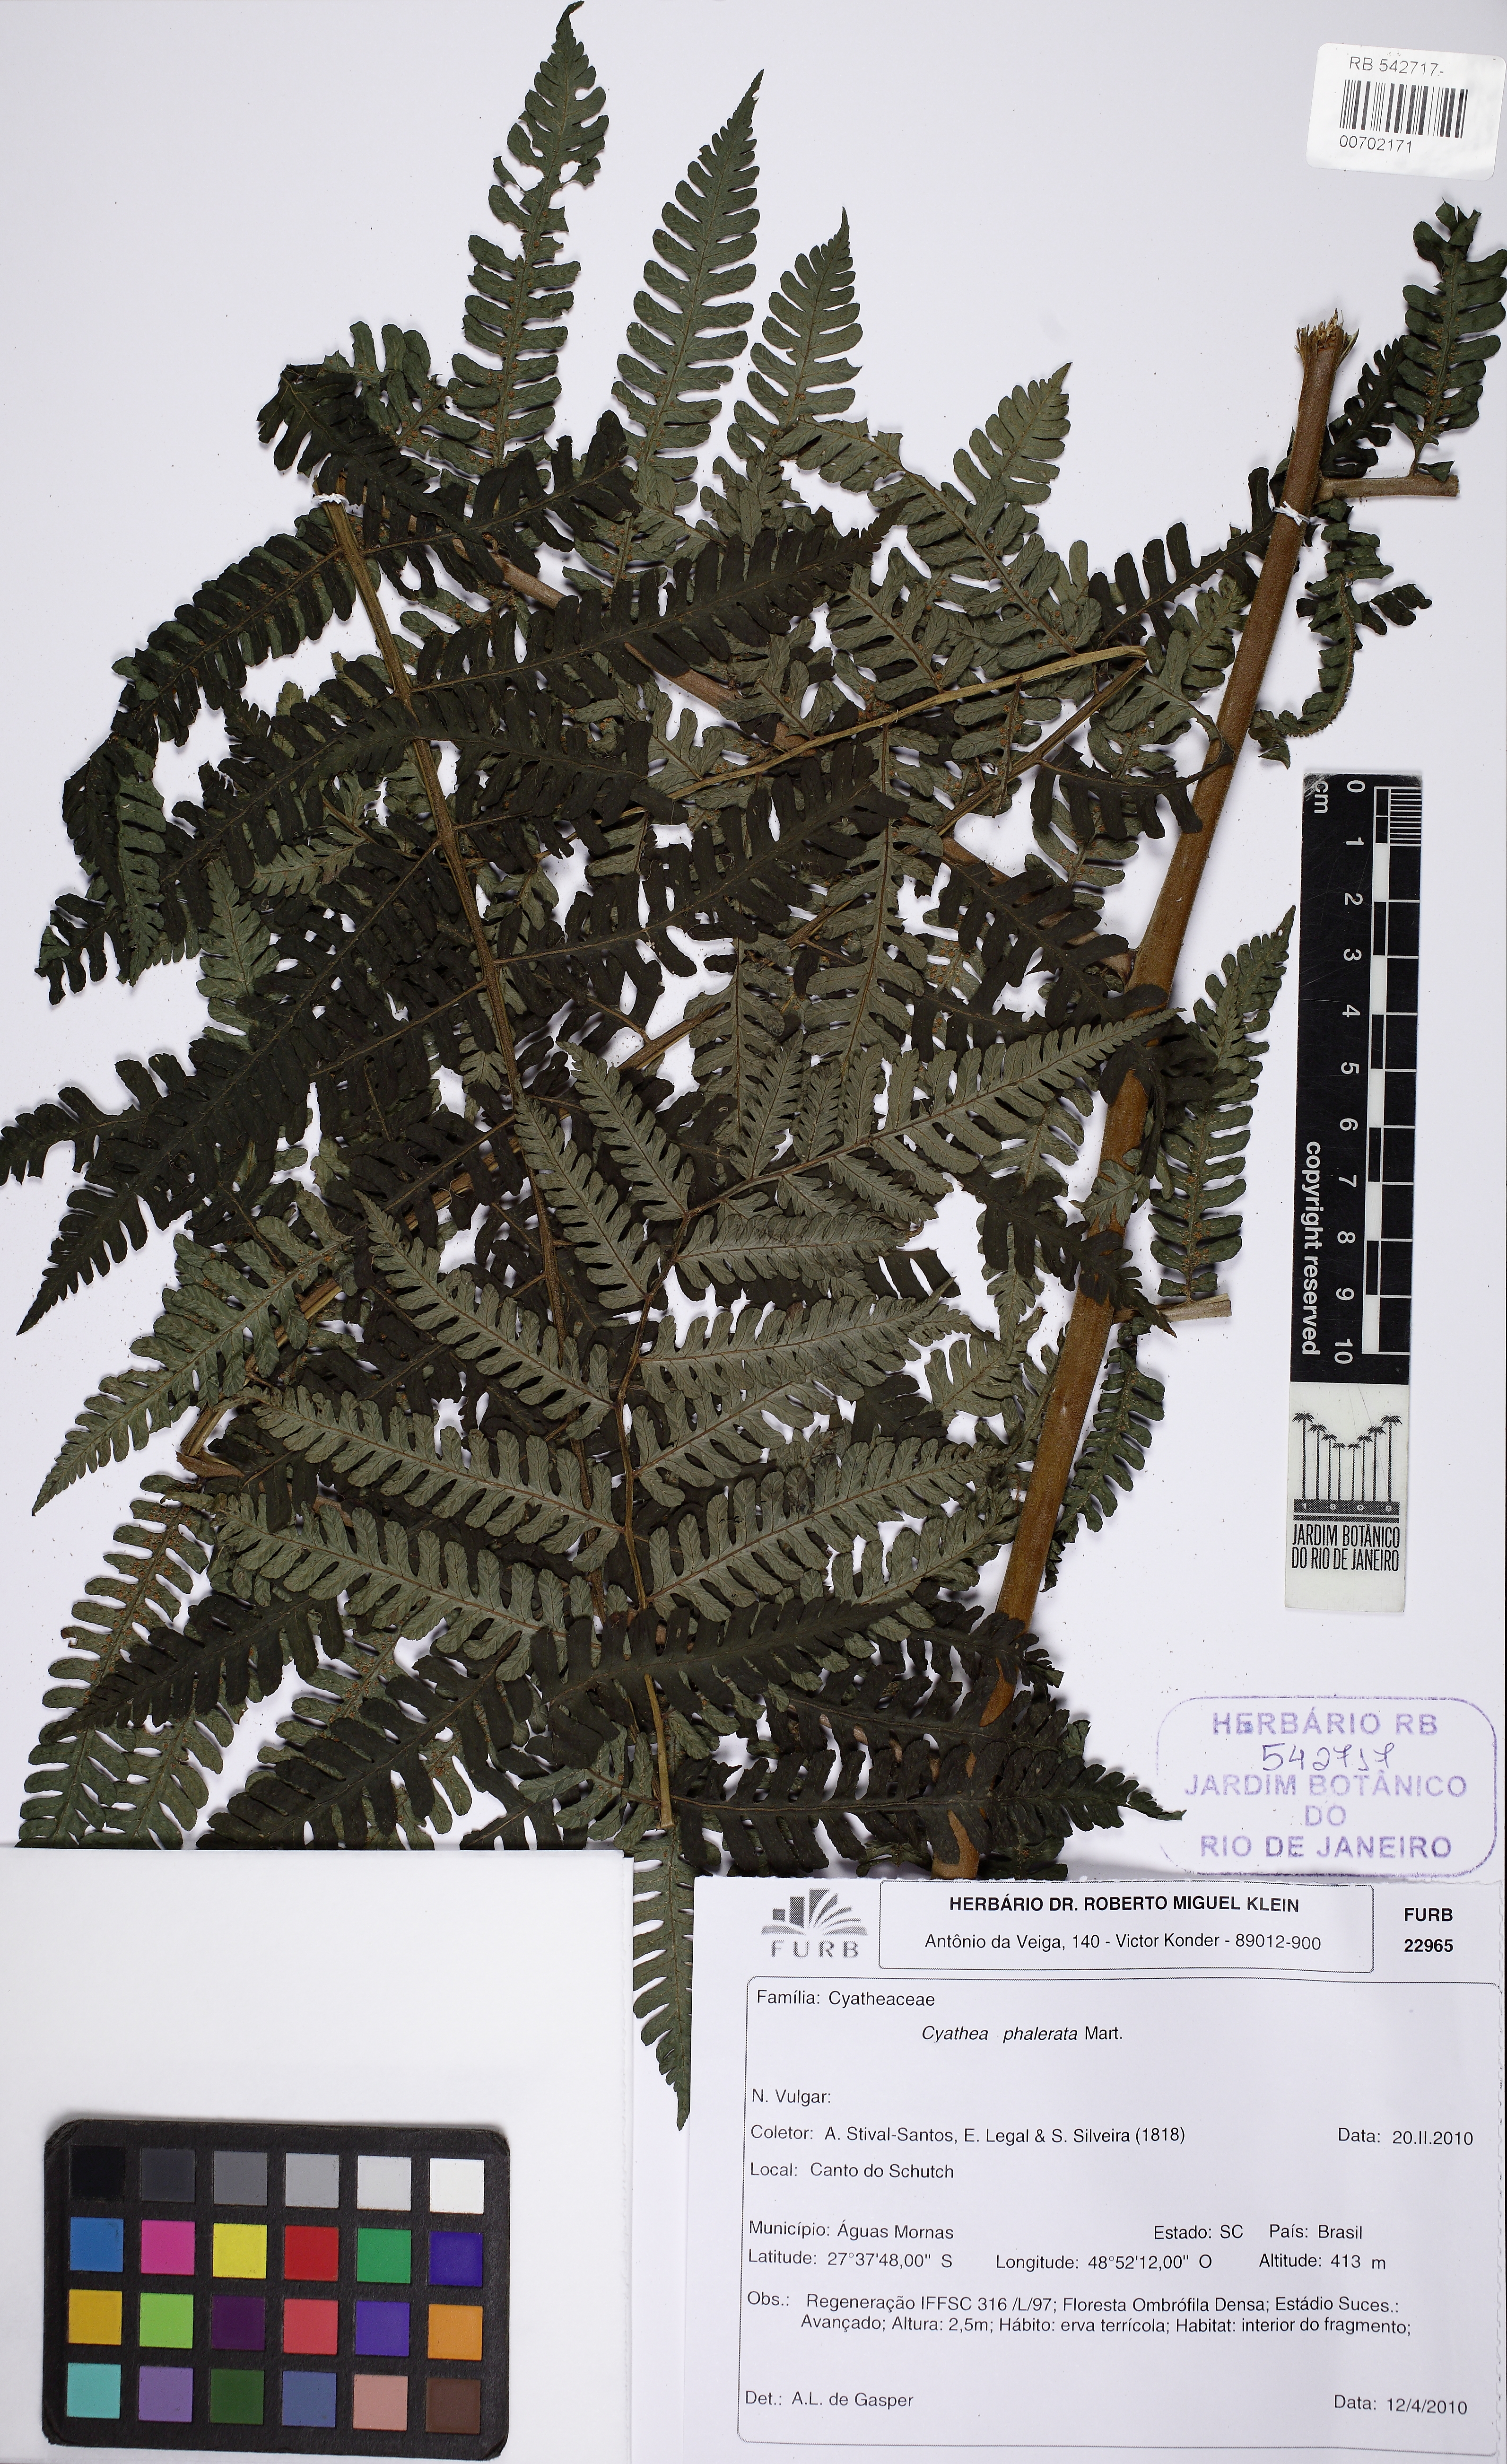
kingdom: Plantae
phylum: Tracheophyta
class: Polypodiopsida
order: Cyatheales
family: Cyatheaceae
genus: Cyathea
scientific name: Cyathea phalerata
